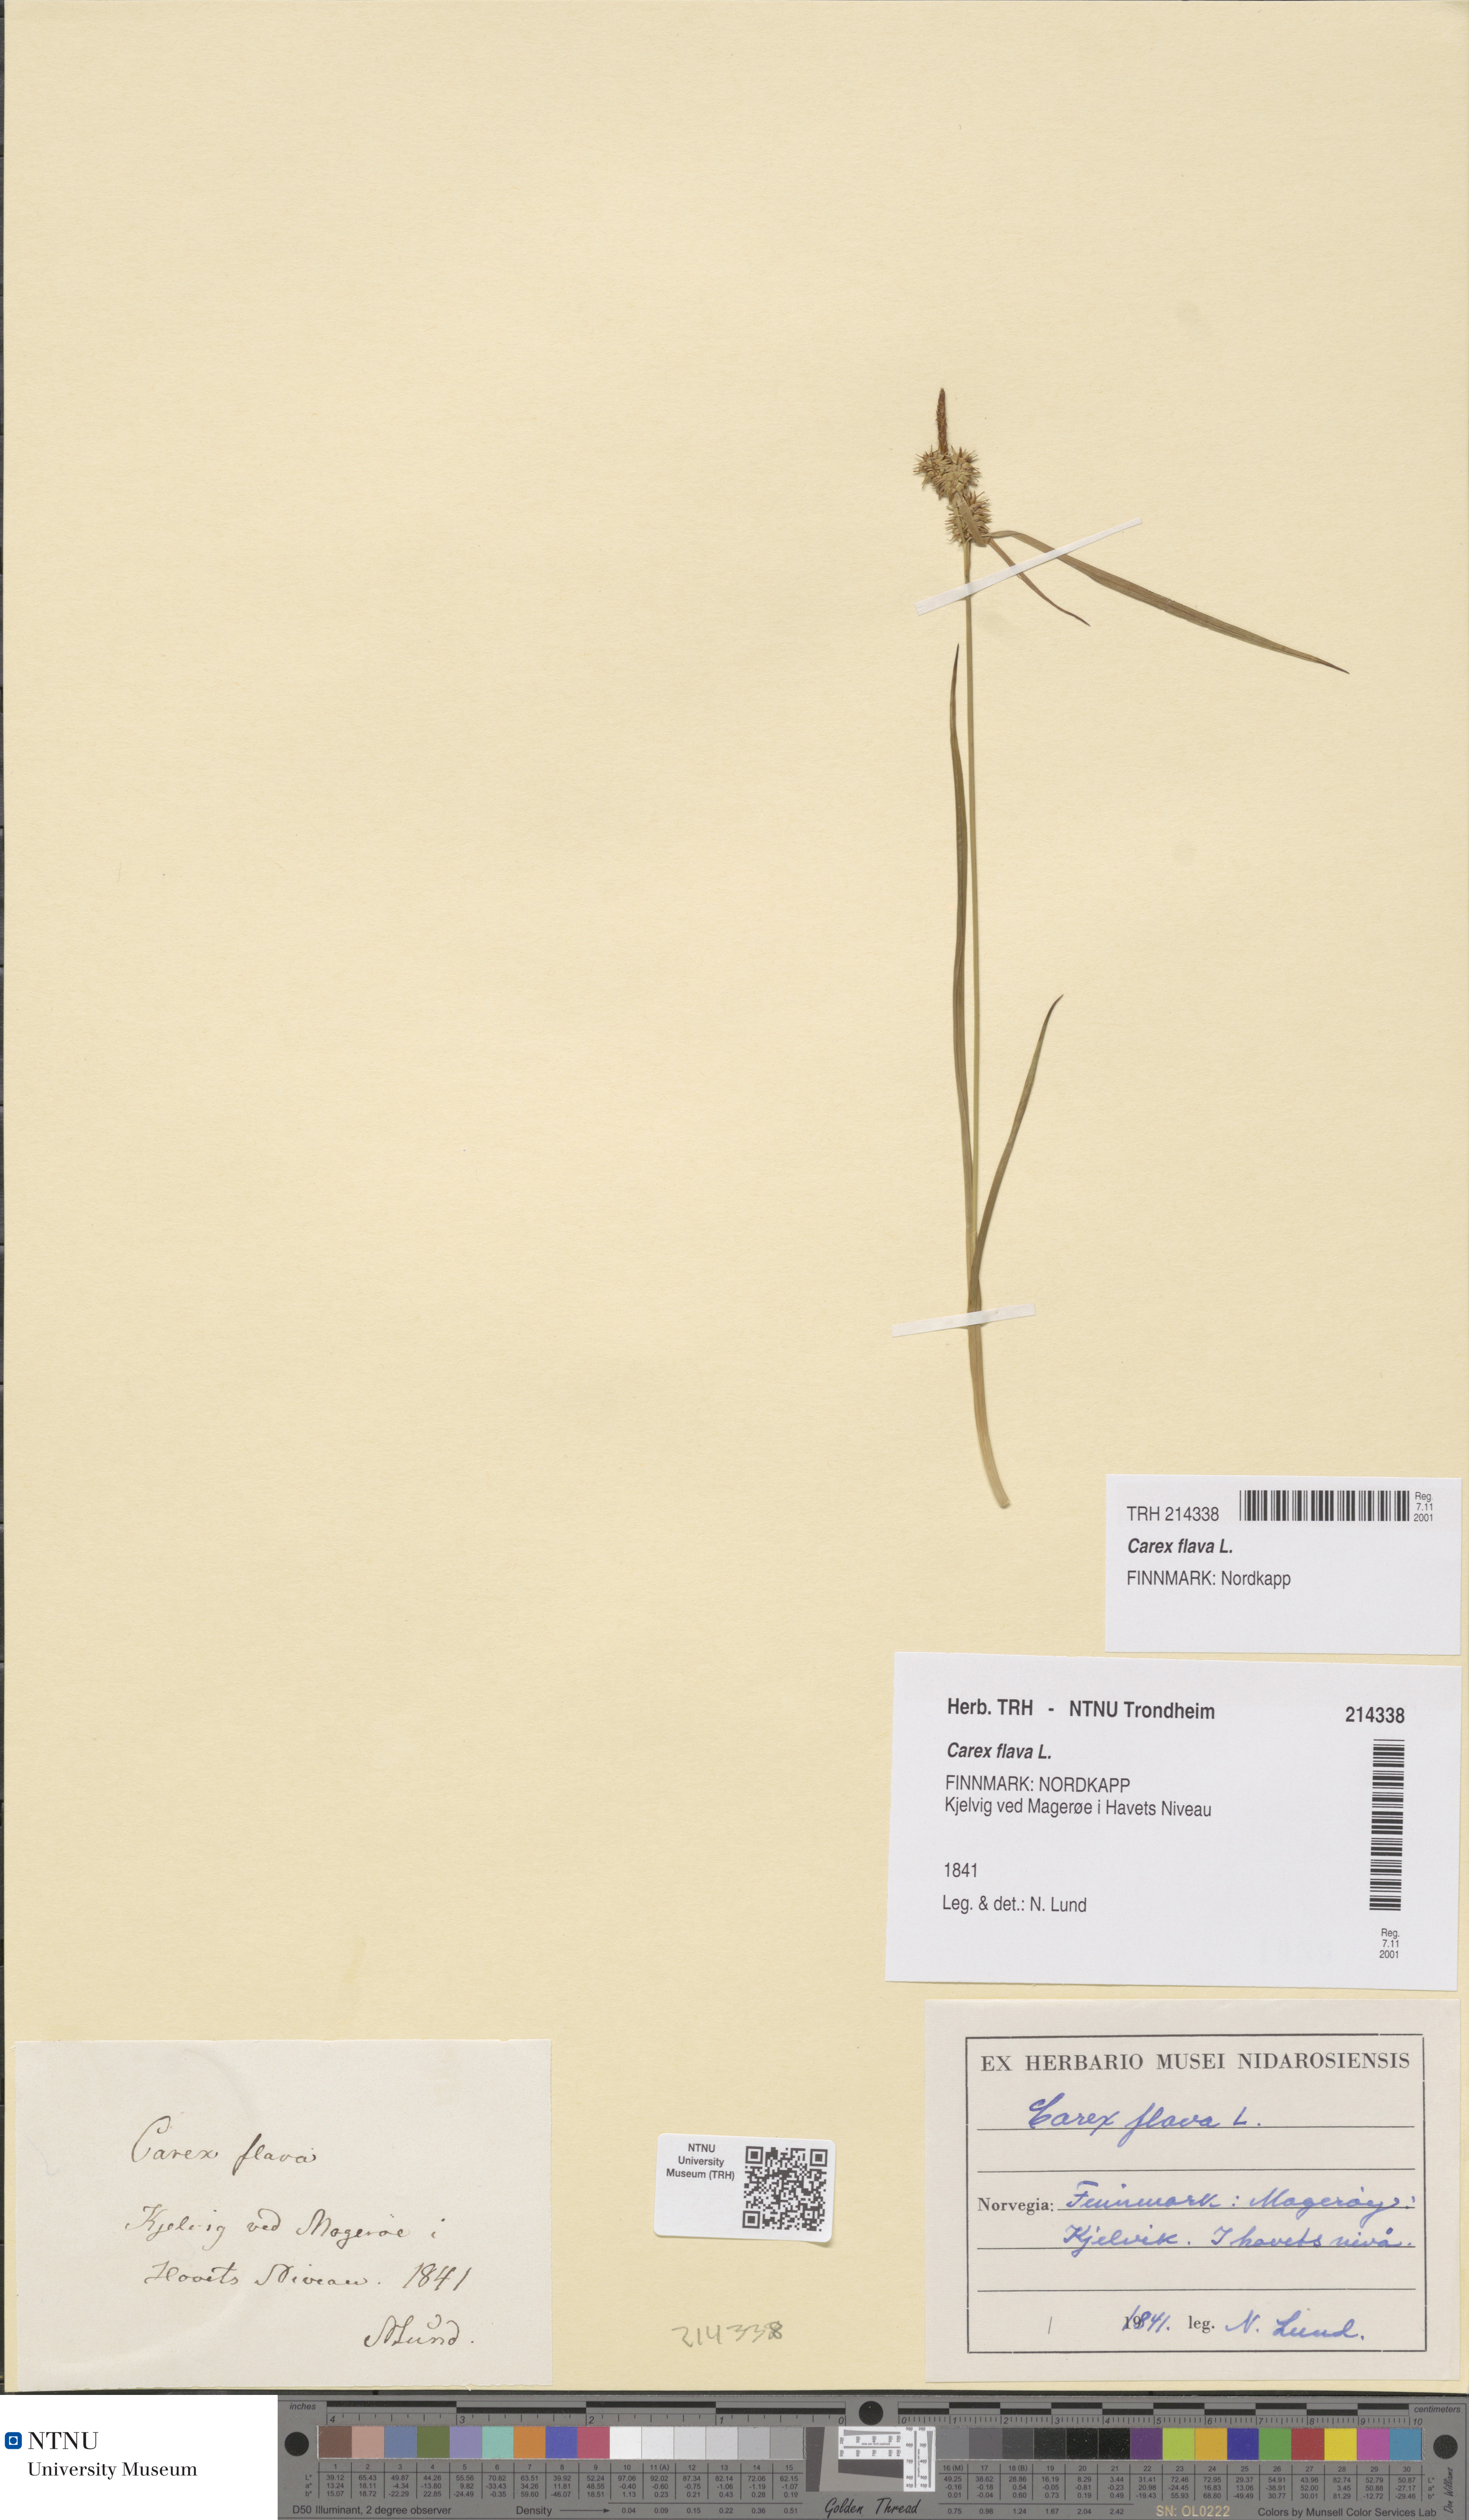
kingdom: Plantae
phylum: Tracheophyta
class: Liliopsida
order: Poales
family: Cyperaceae
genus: Carex
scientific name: Carex flava
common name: Large yellow-sedge
